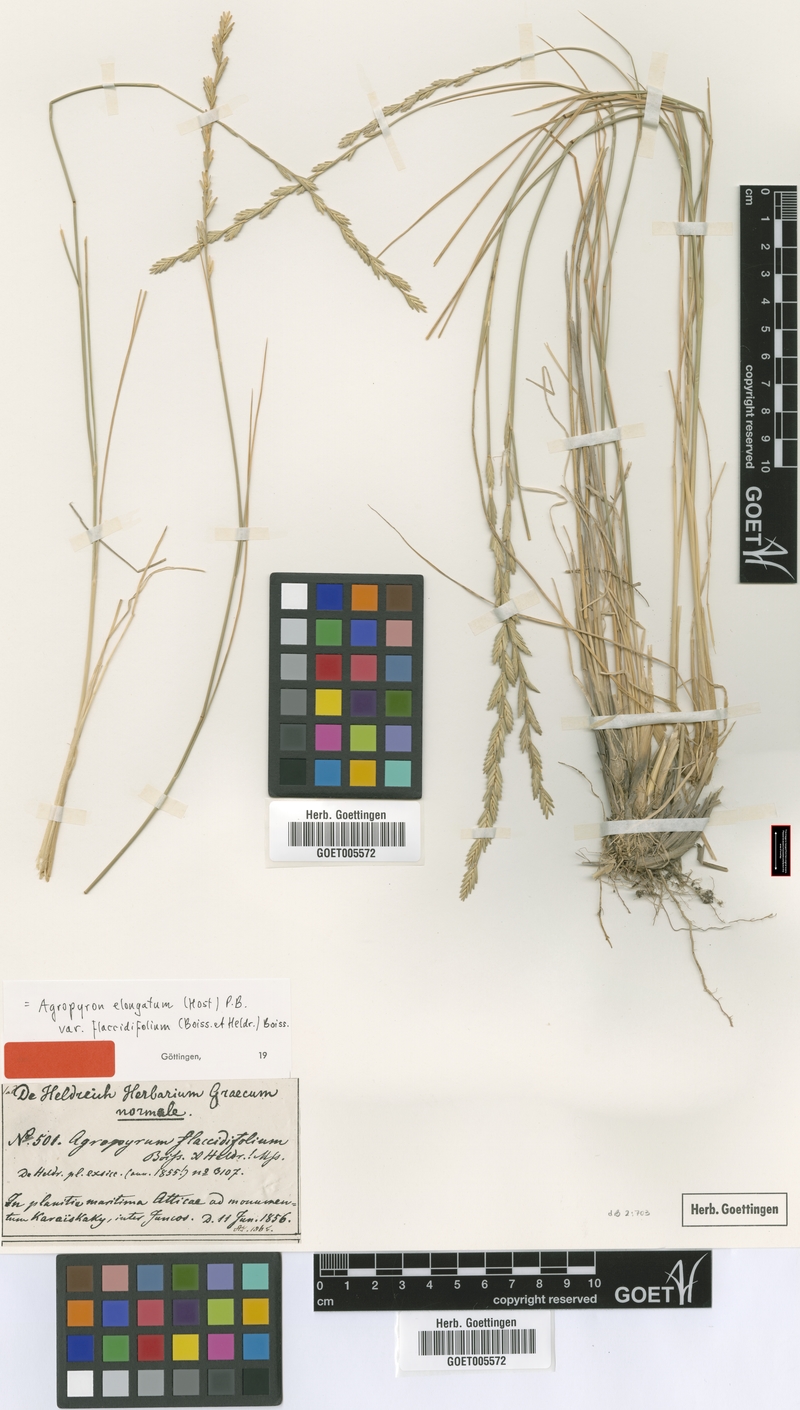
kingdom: Plantae
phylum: Tracheophyta
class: Liliopsida
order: Poales
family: Poaceae
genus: Thinopyrum
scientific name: Thinopyrum flaccidifolium
